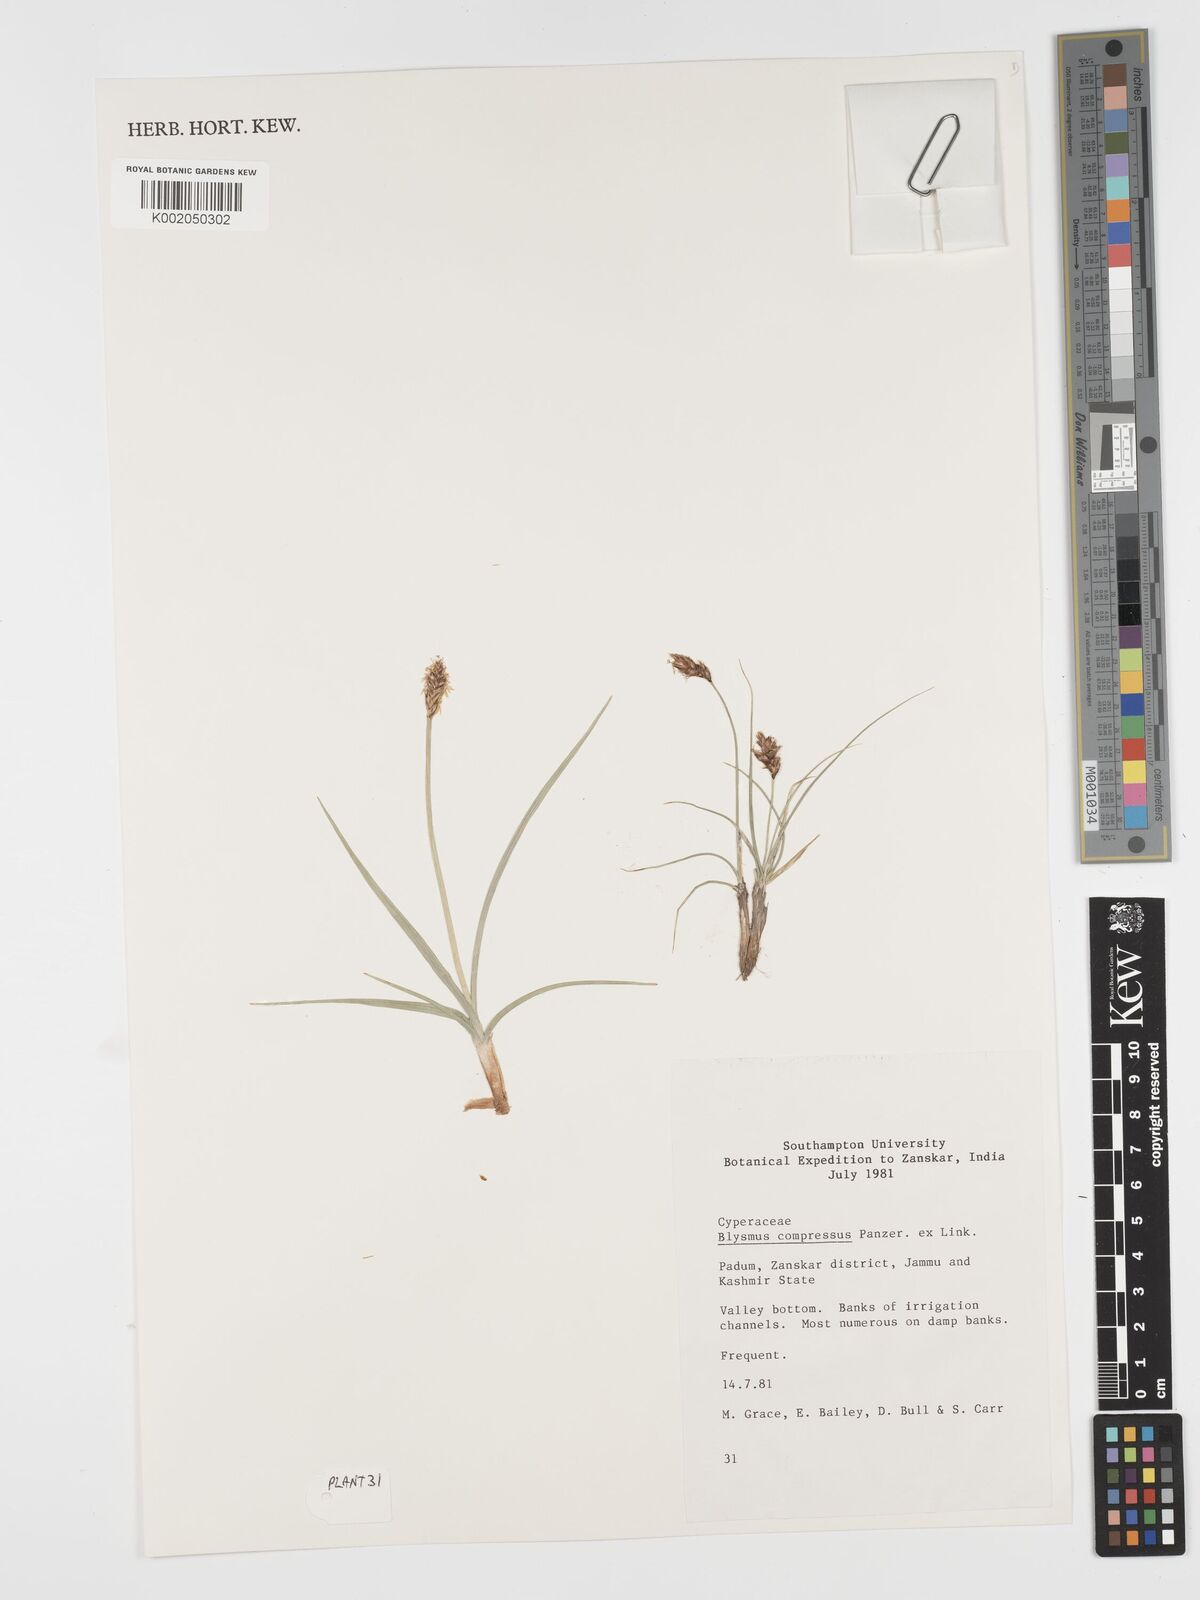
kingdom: Plantae
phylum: Tracheophyta
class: Liliopsida
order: Poales
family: Cyperaceae
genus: Blysmus
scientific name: Blysmus compressus
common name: Flat-sedge
